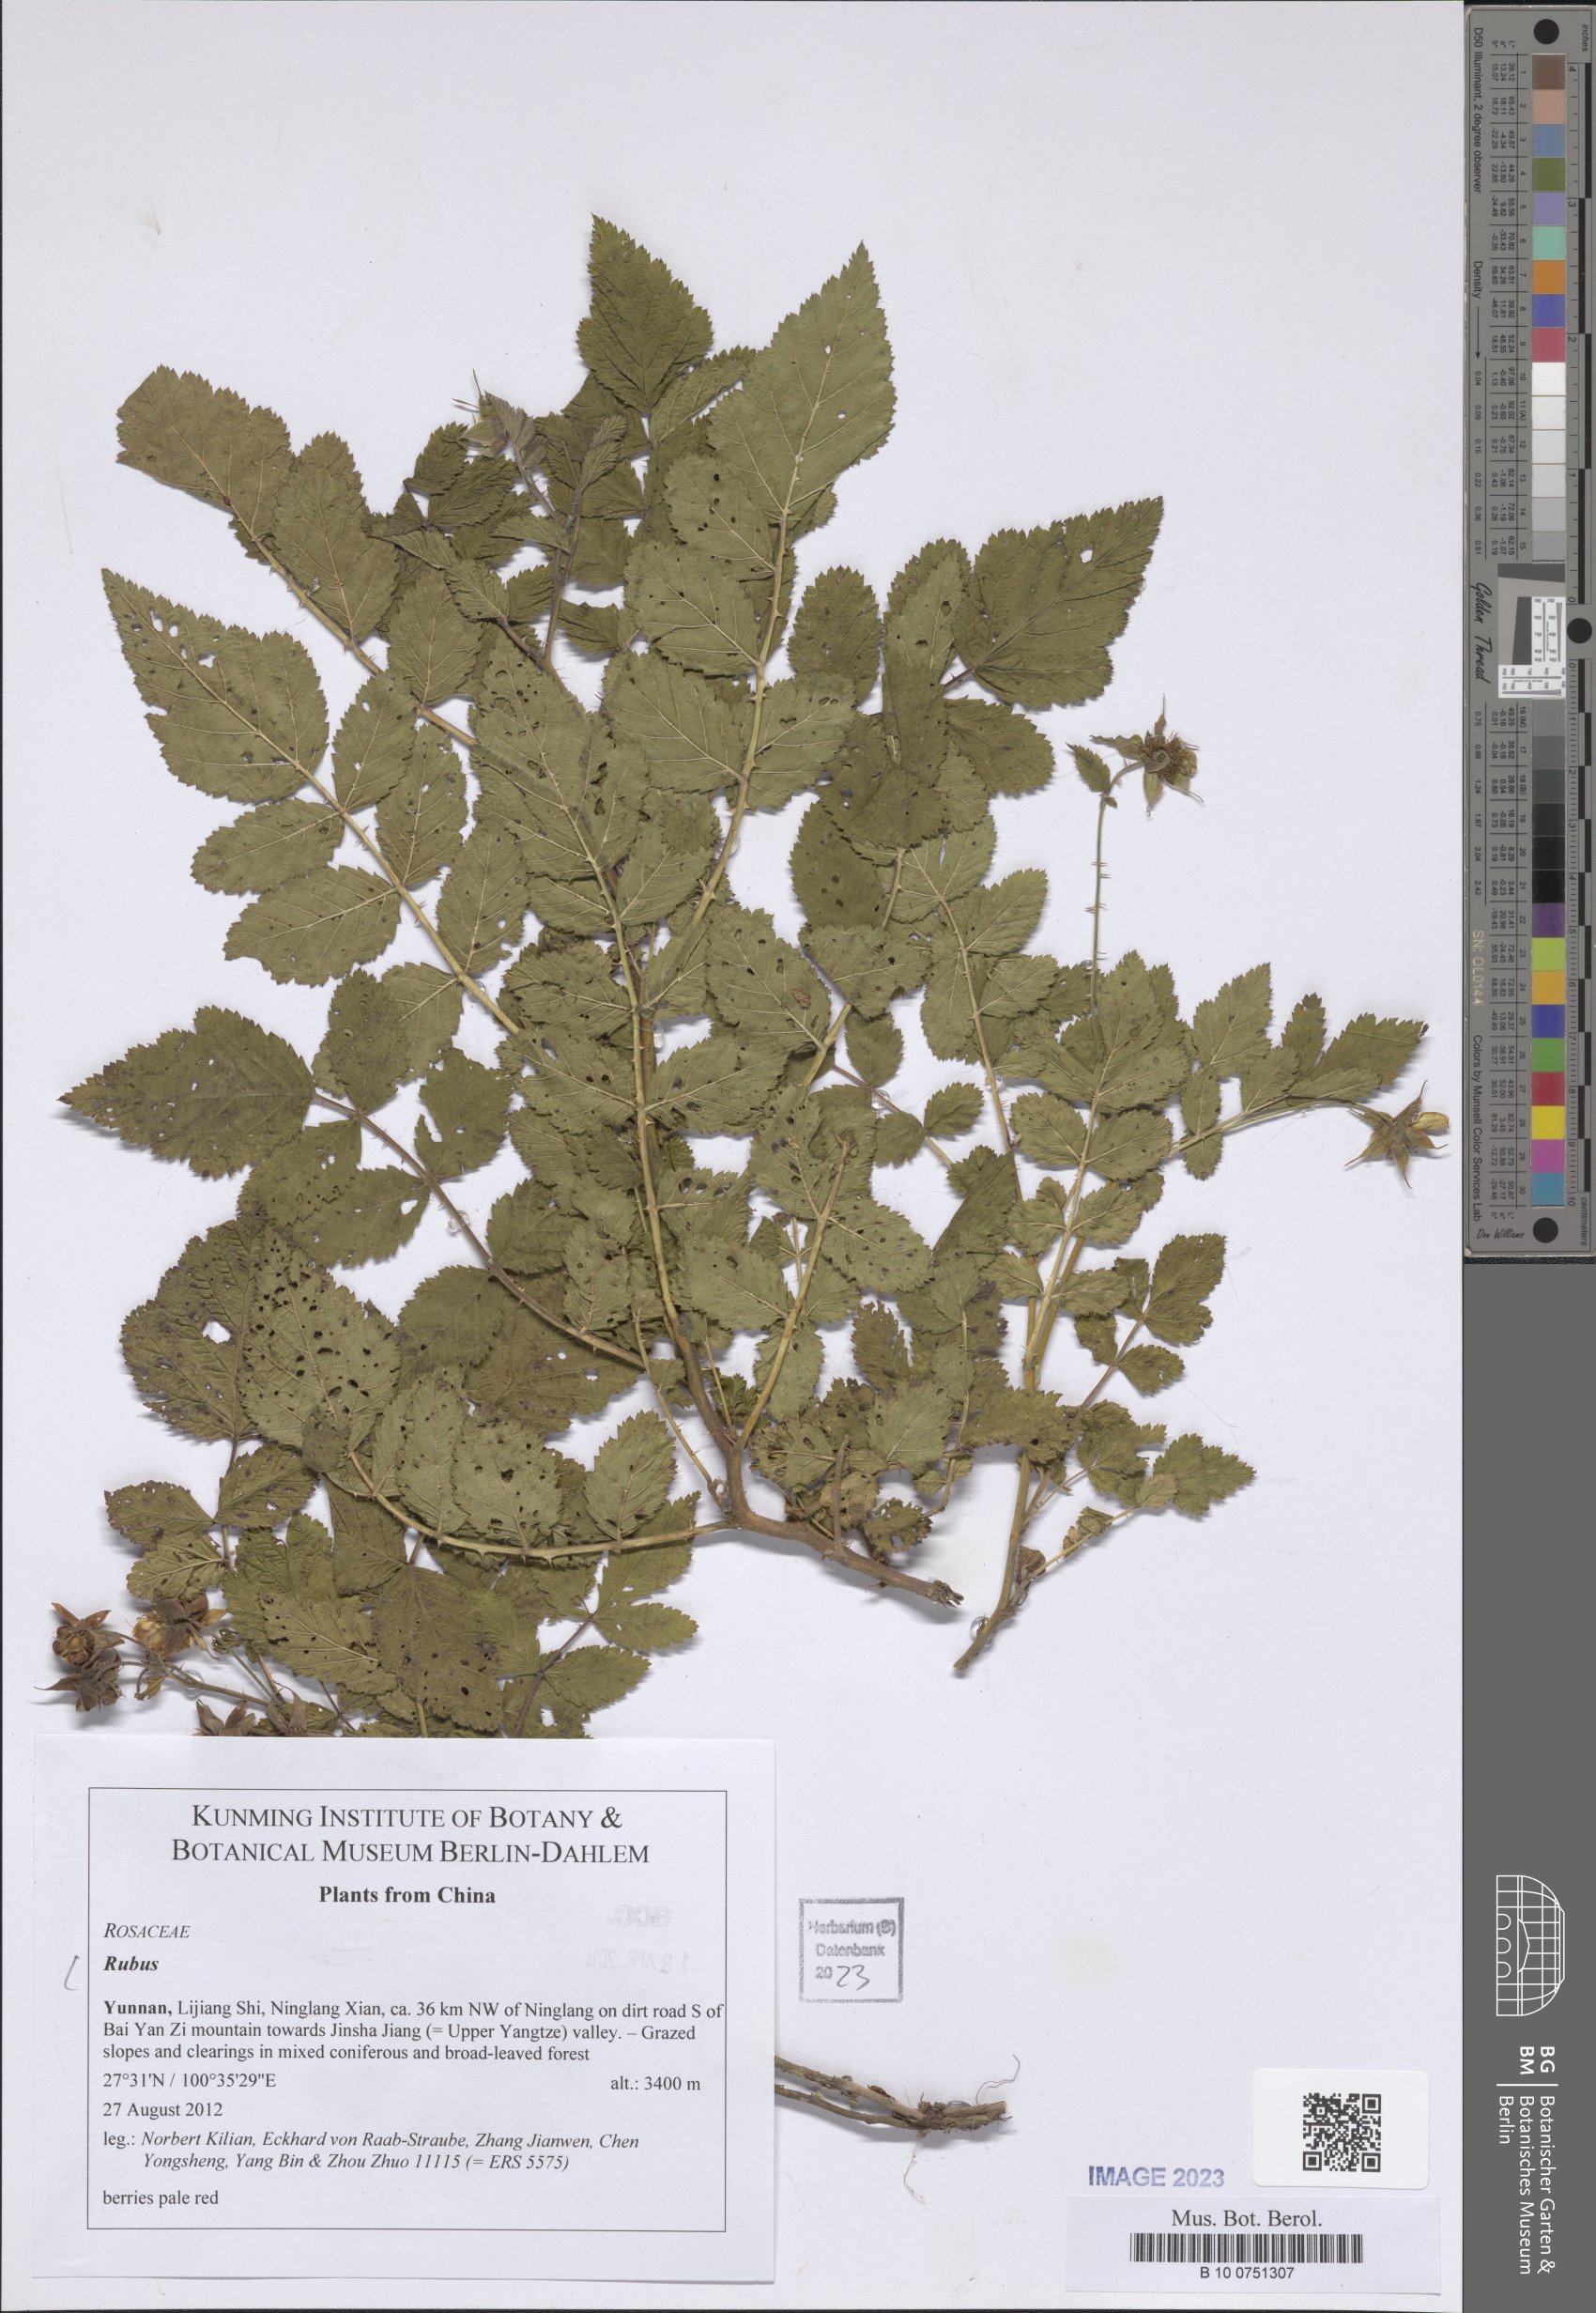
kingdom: Plantae
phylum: Tracheophyta
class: Magnoliopsida
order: Rosales
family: Rosaceae
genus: Rubus
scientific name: Rubus
